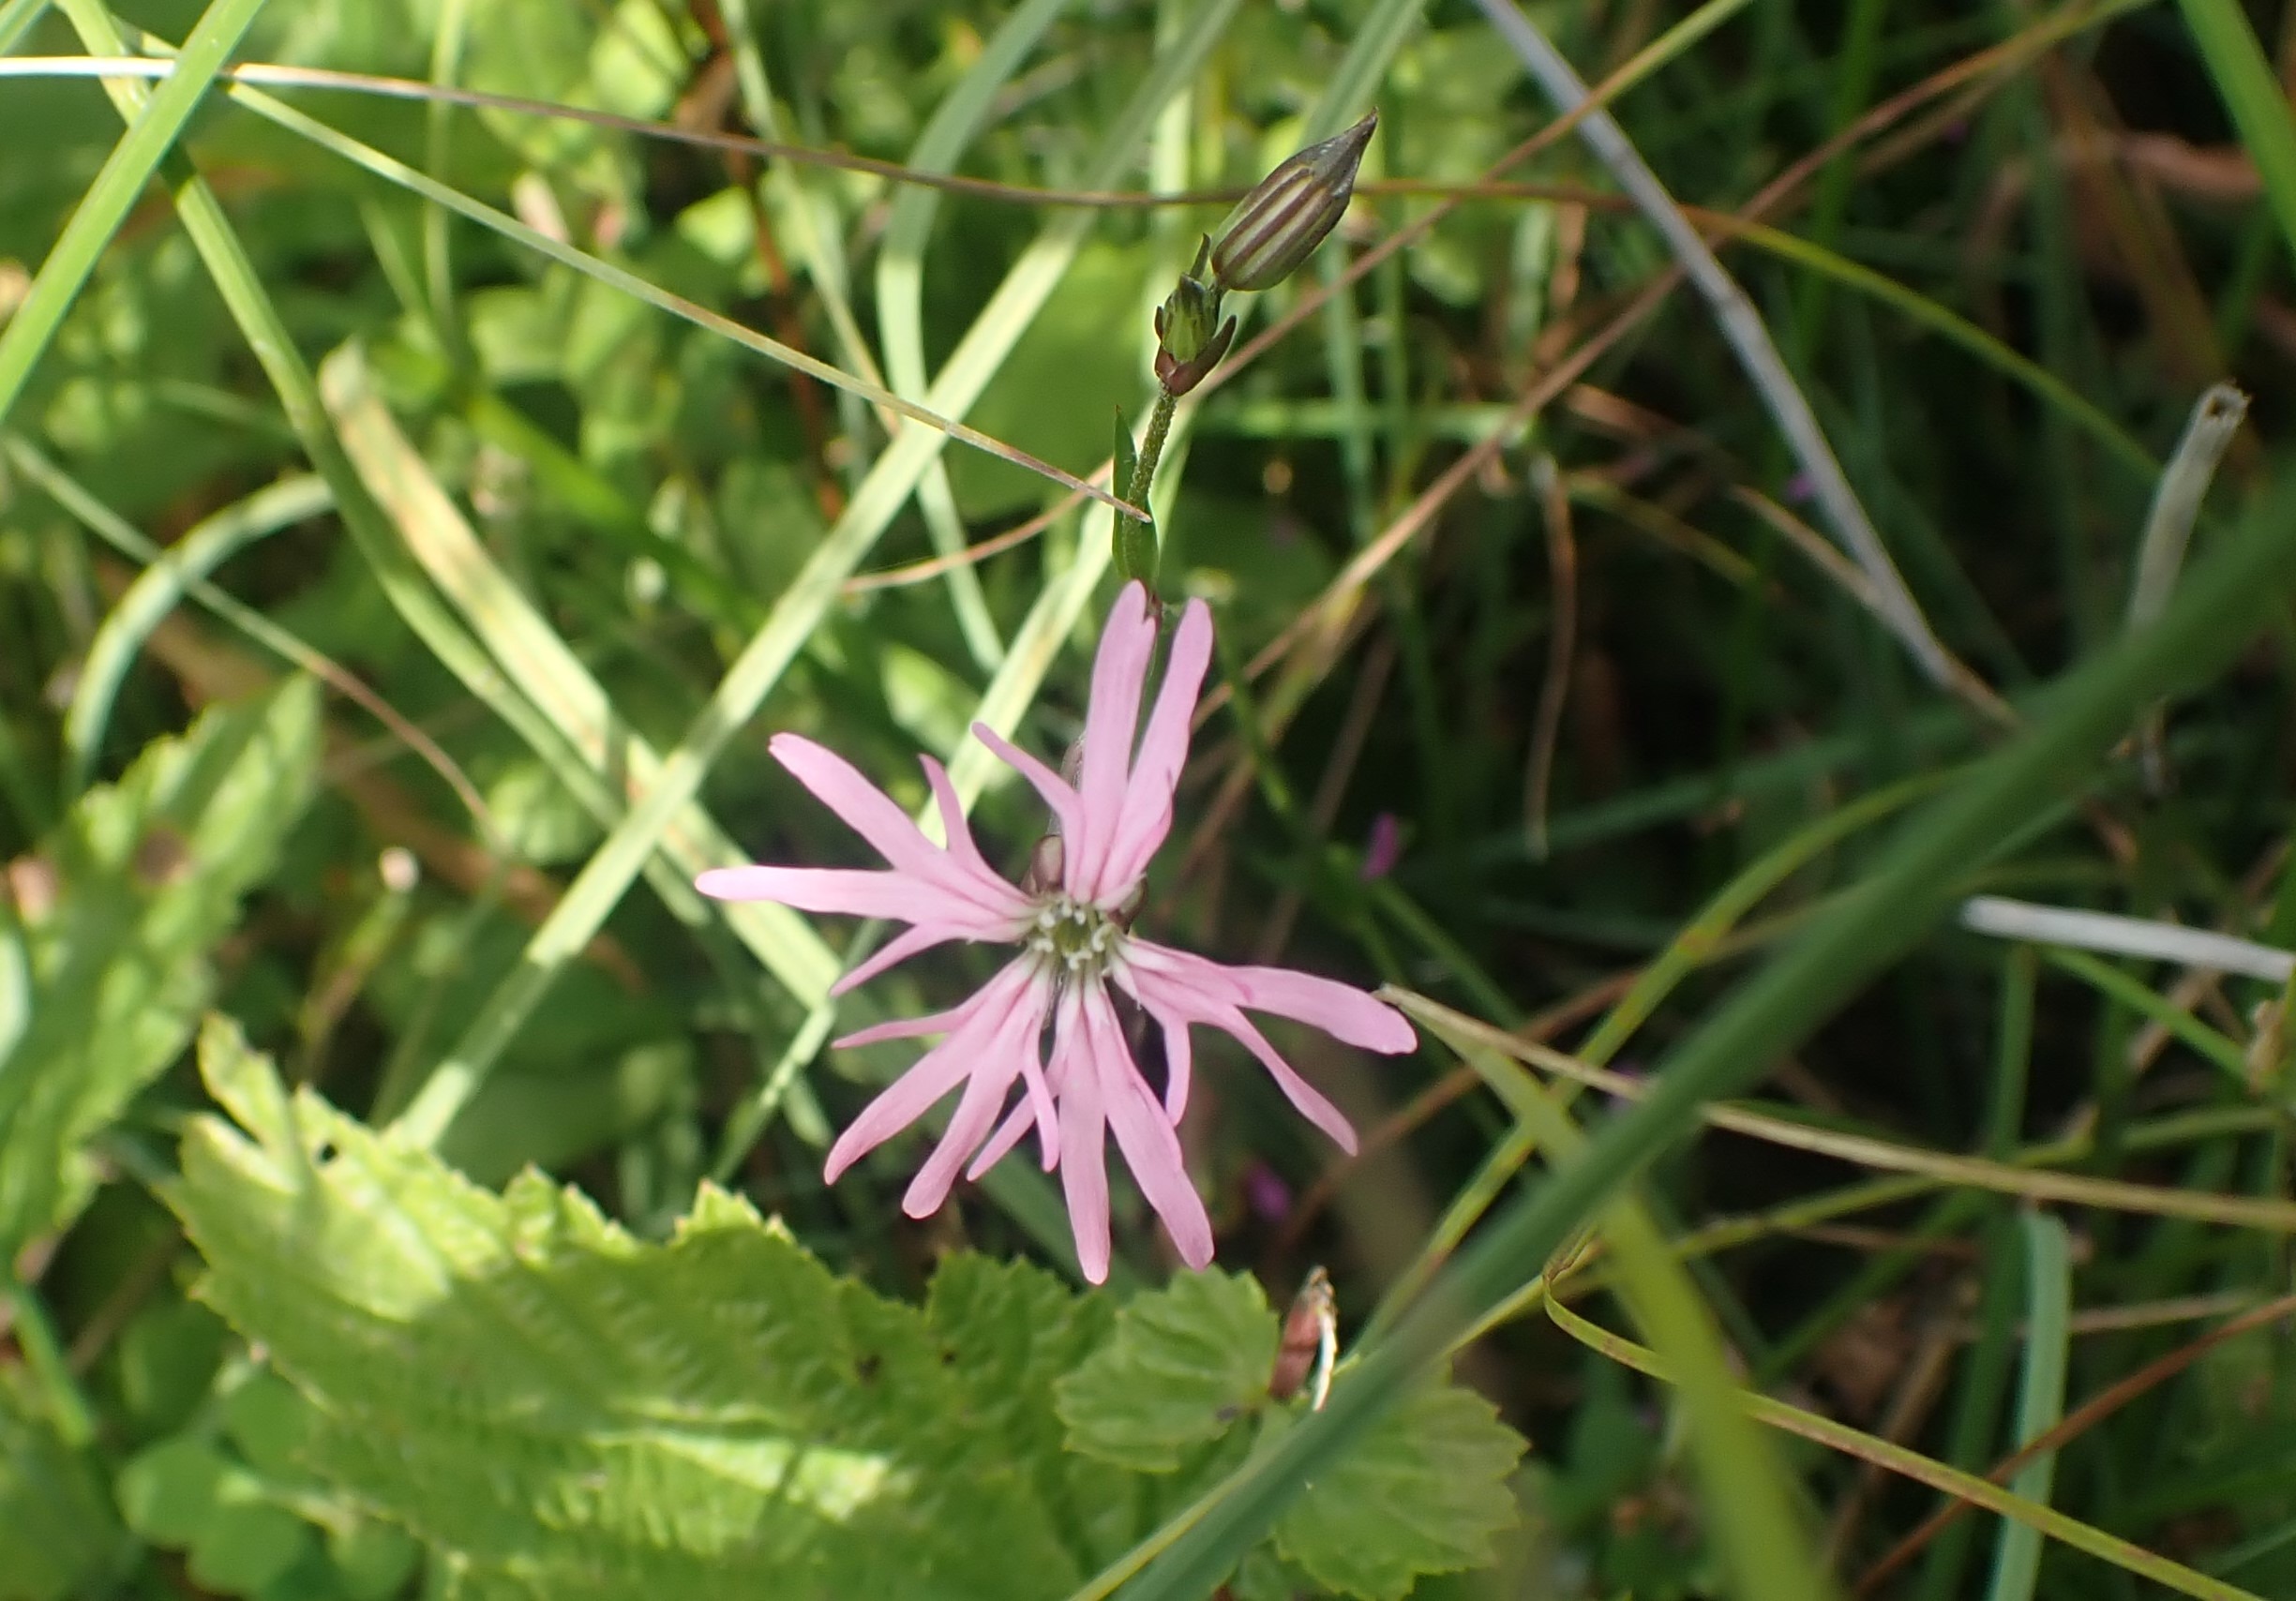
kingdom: Plantae
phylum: Tracheophyta
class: Magnoliopsida
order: Caryophyllales
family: Caryophyllaceae
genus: Silene
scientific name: Silene flos-cuculi
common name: Trævlekrone
